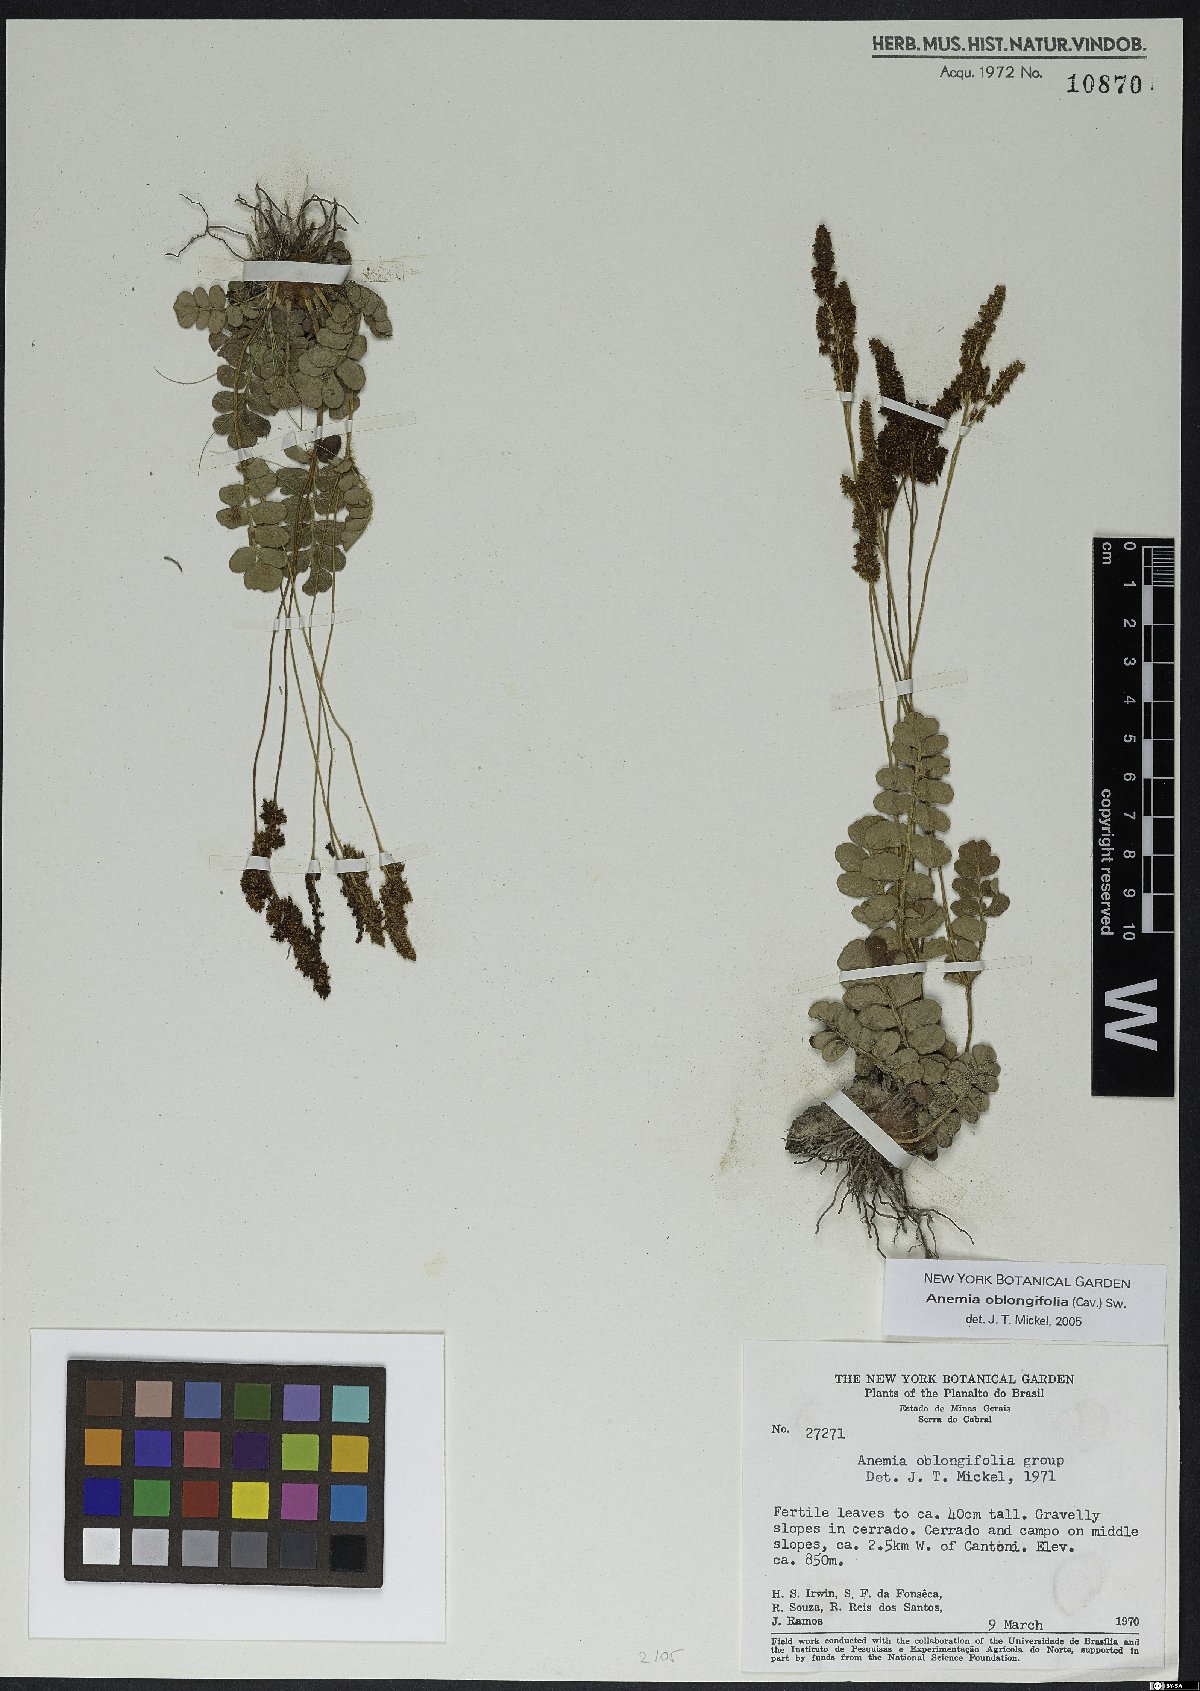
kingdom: Plantae
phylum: Tracheophyta
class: Polypodiopsida
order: Schizaeales
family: Anemiaceae
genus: Anemia
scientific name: Anemia oblongifolia
